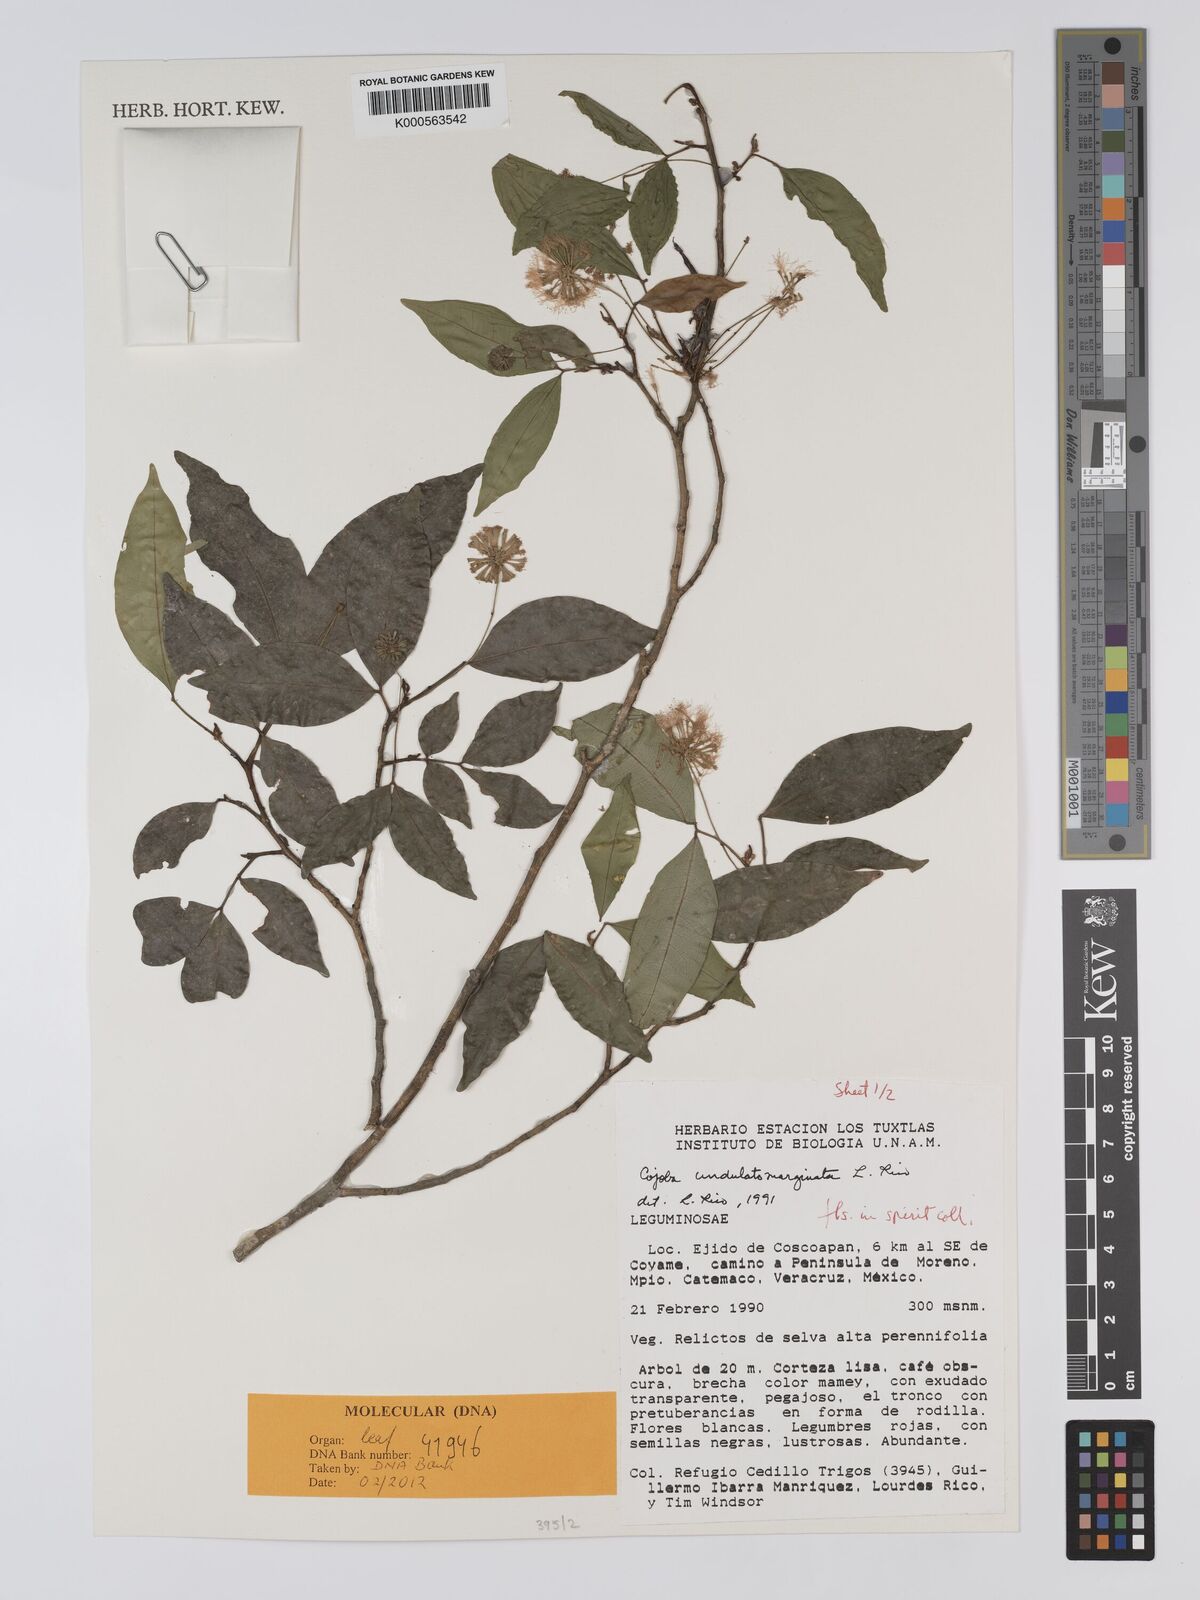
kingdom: Plantae
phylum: Tracheophyta
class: Magnoliopsida
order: Fabales
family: Fabaceae
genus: Cojoba
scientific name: Cojoba rufescens
